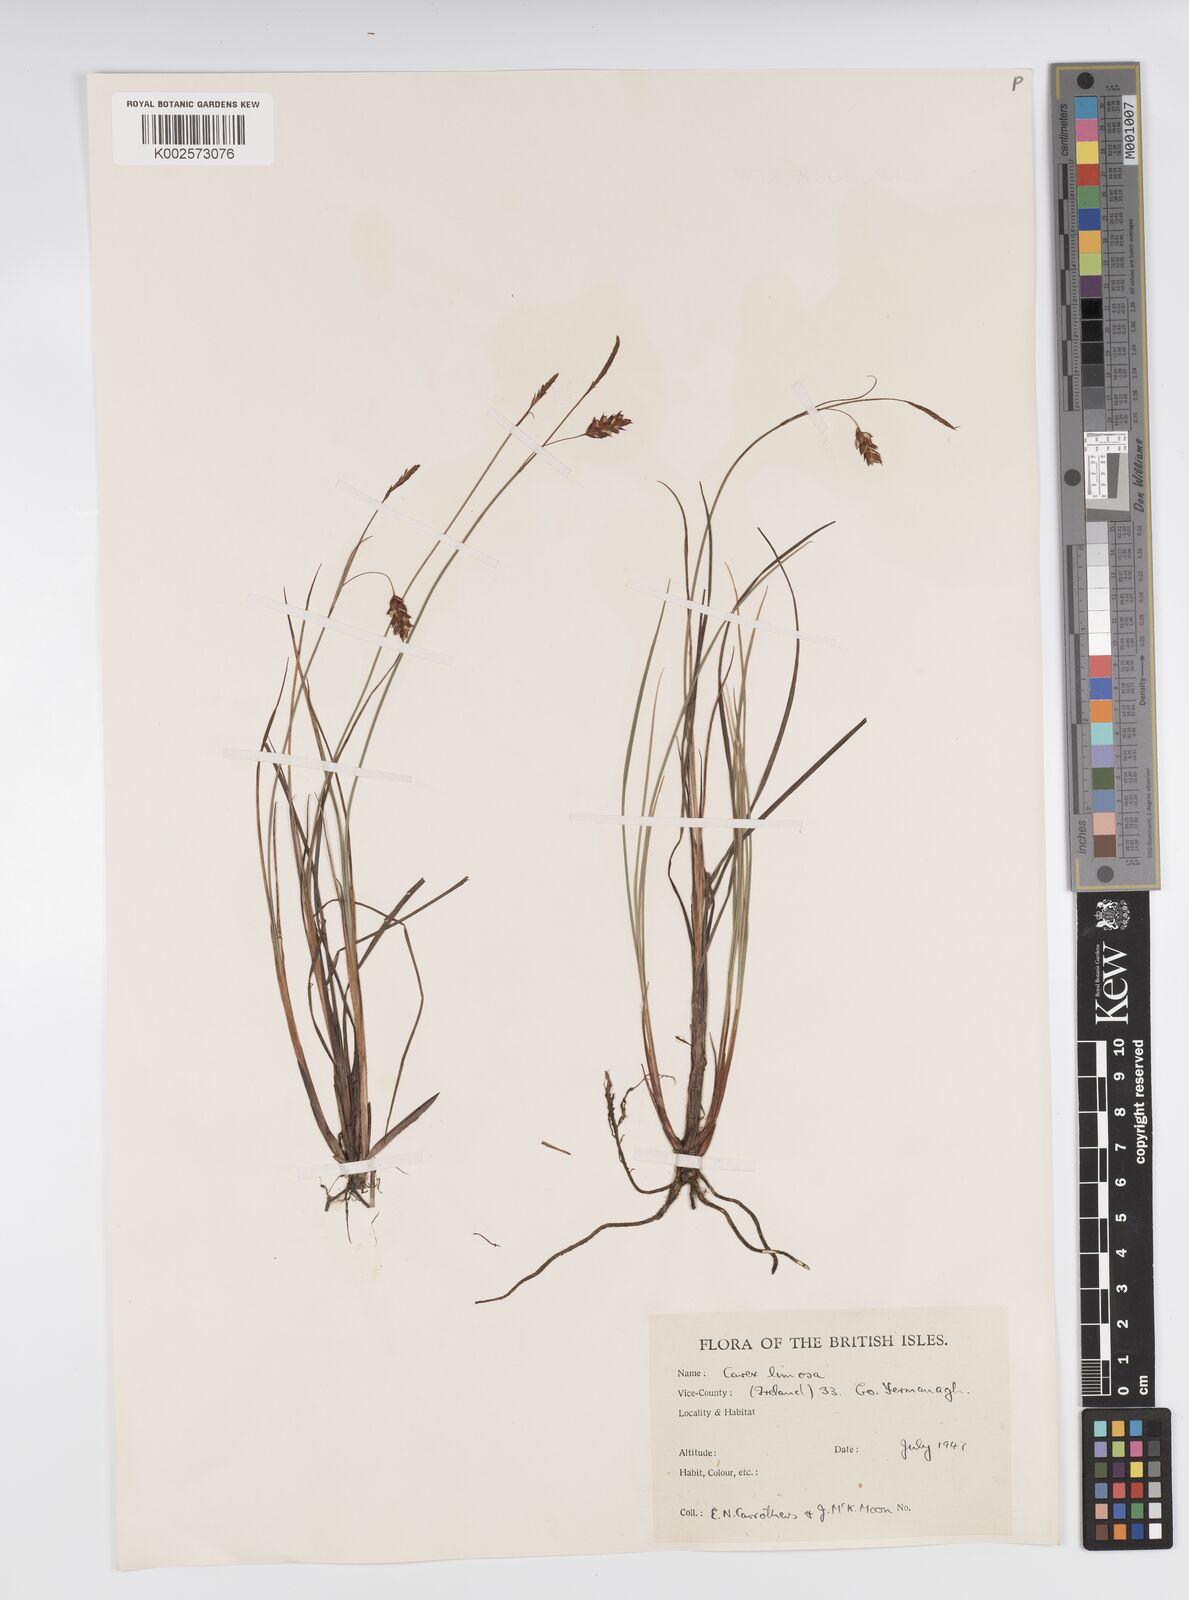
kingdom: Plantae
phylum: Tracheophyta
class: Liliopsida
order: Poales
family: Cyperaceae
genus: Carex
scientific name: Carex limosa
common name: Bog sedge
